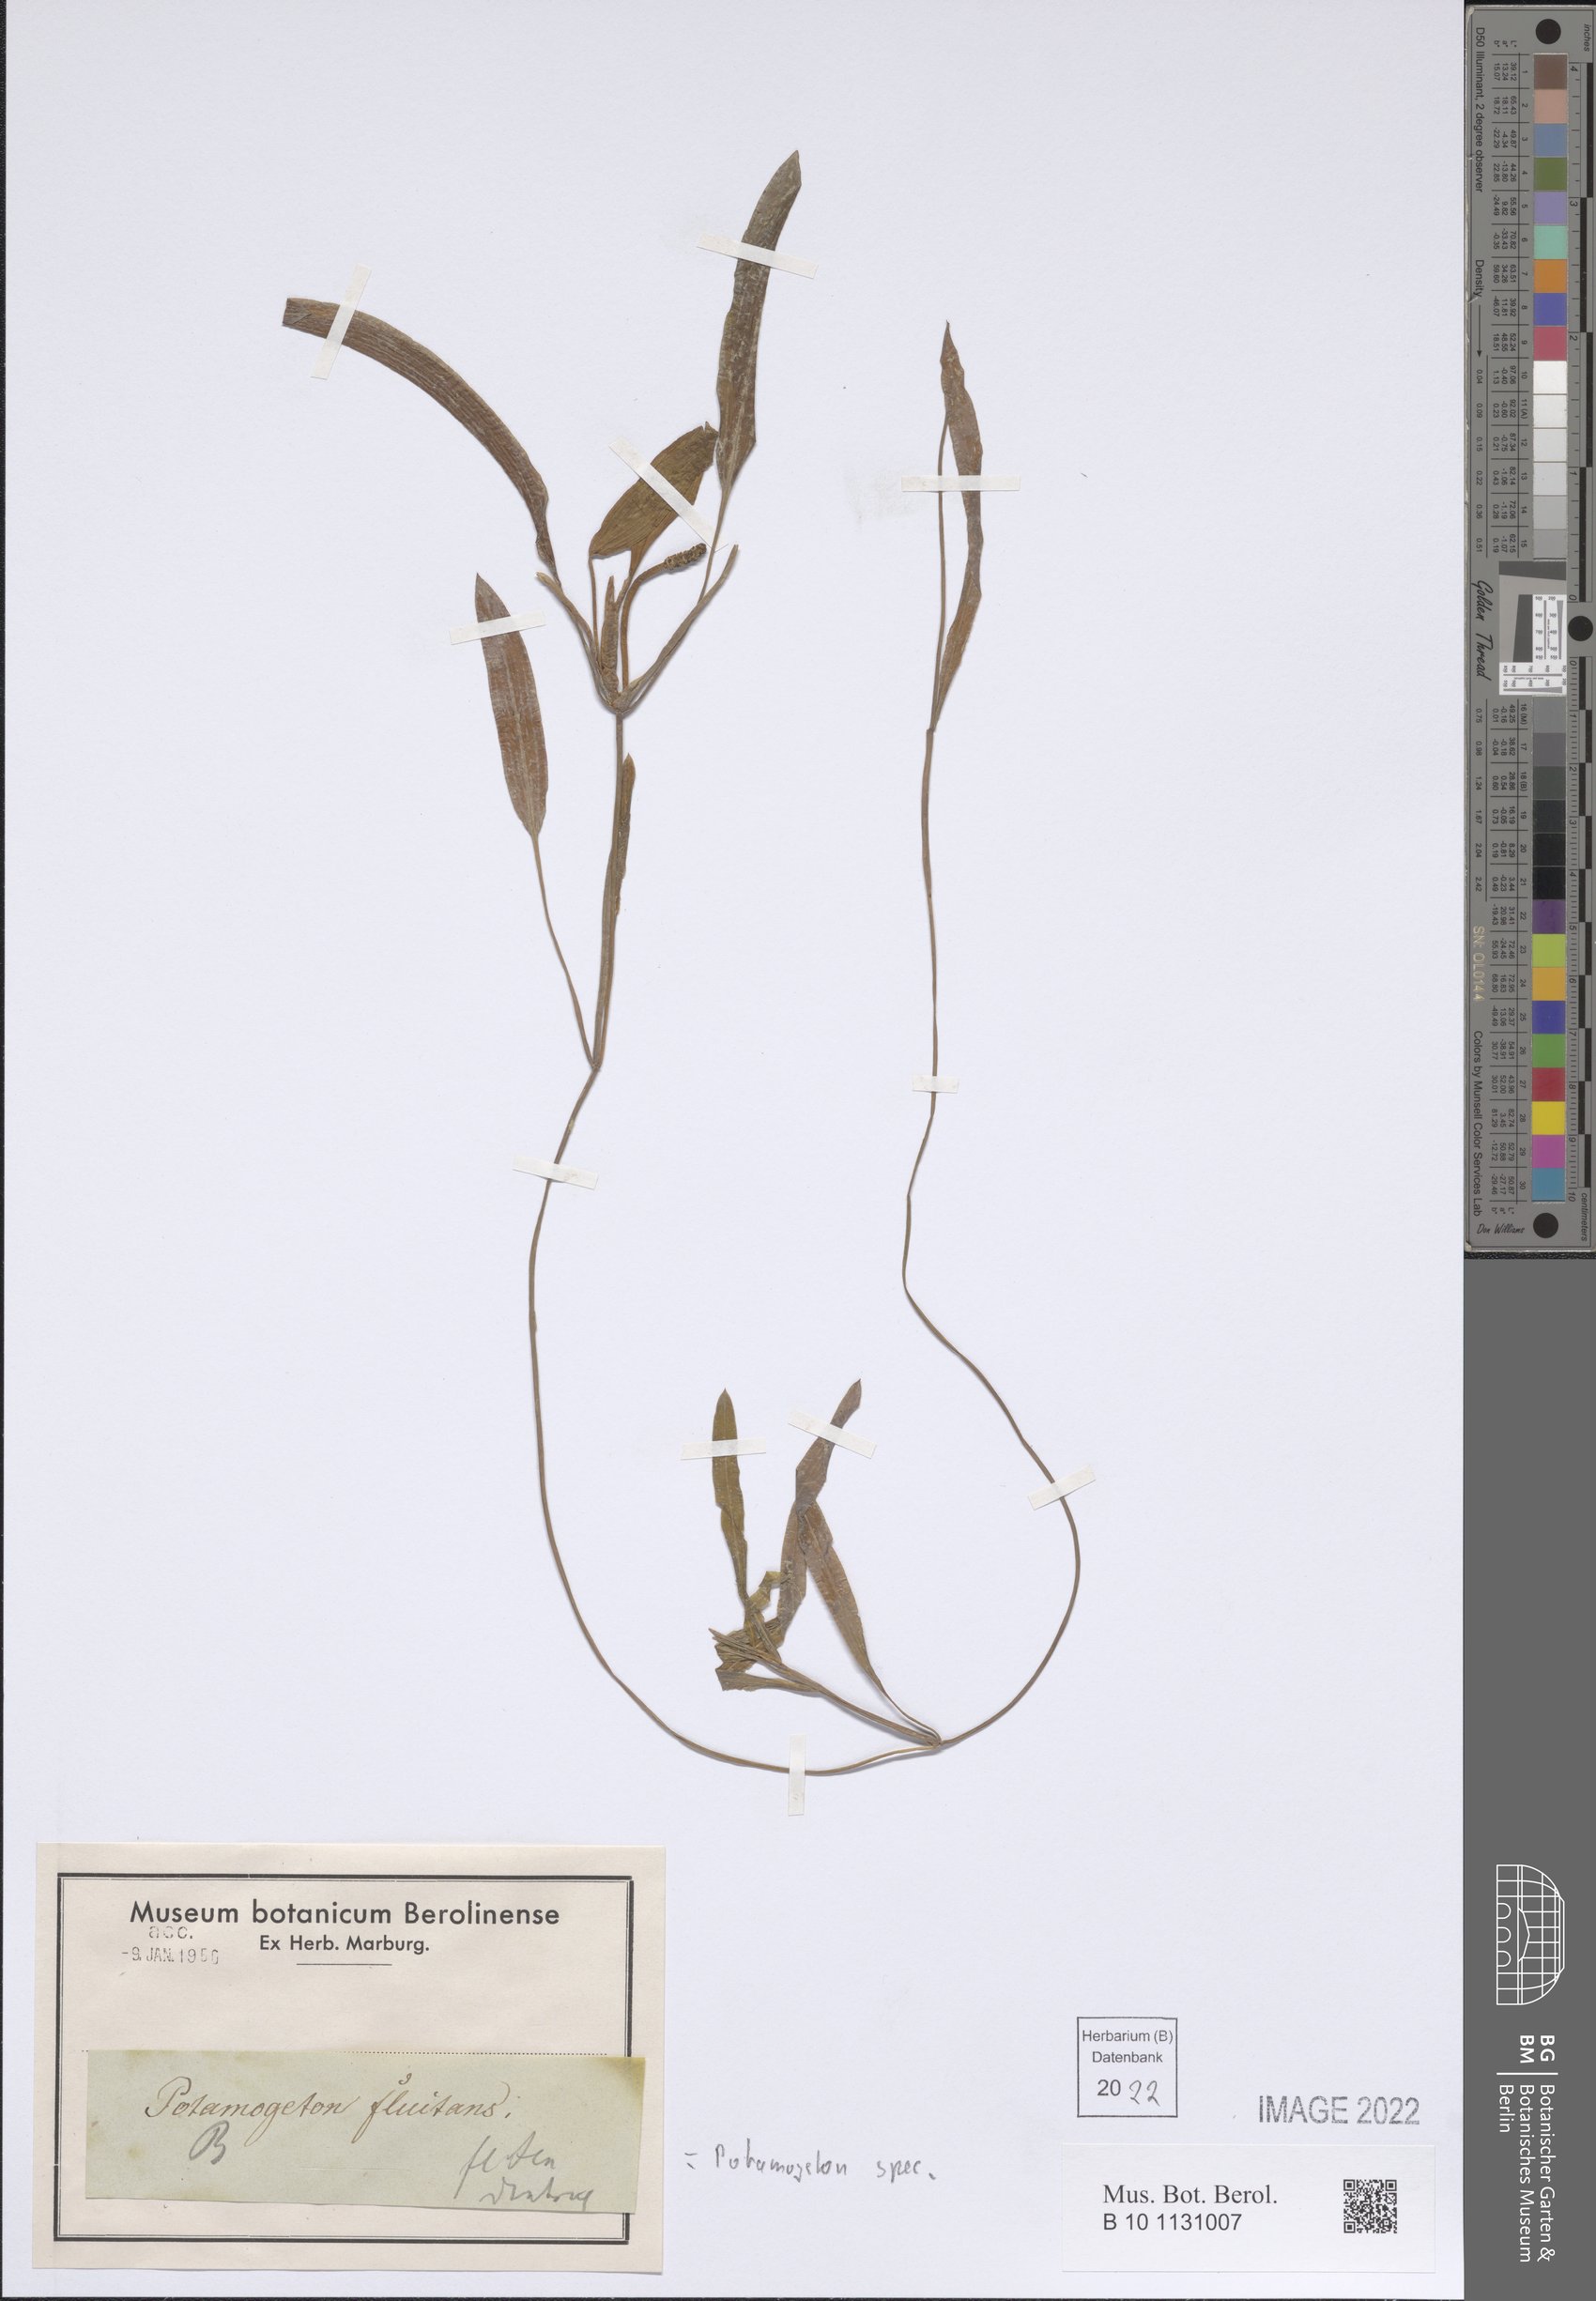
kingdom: Plantae
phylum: Tracheophyta
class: Liliopsida
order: Alismatales
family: Potamogetonaceae
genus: Potamogeton
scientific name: Potamogeton
